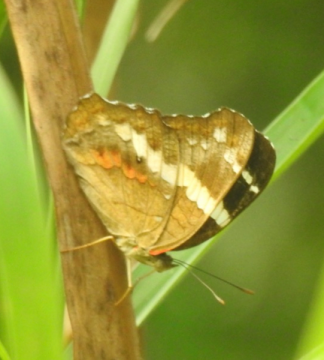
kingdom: Animalia
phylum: Arthropoda
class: Insecta
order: Lepidoptera
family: Nymphalidae
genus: Anartia
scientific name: Anartia fatima
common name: Banded Peacock
